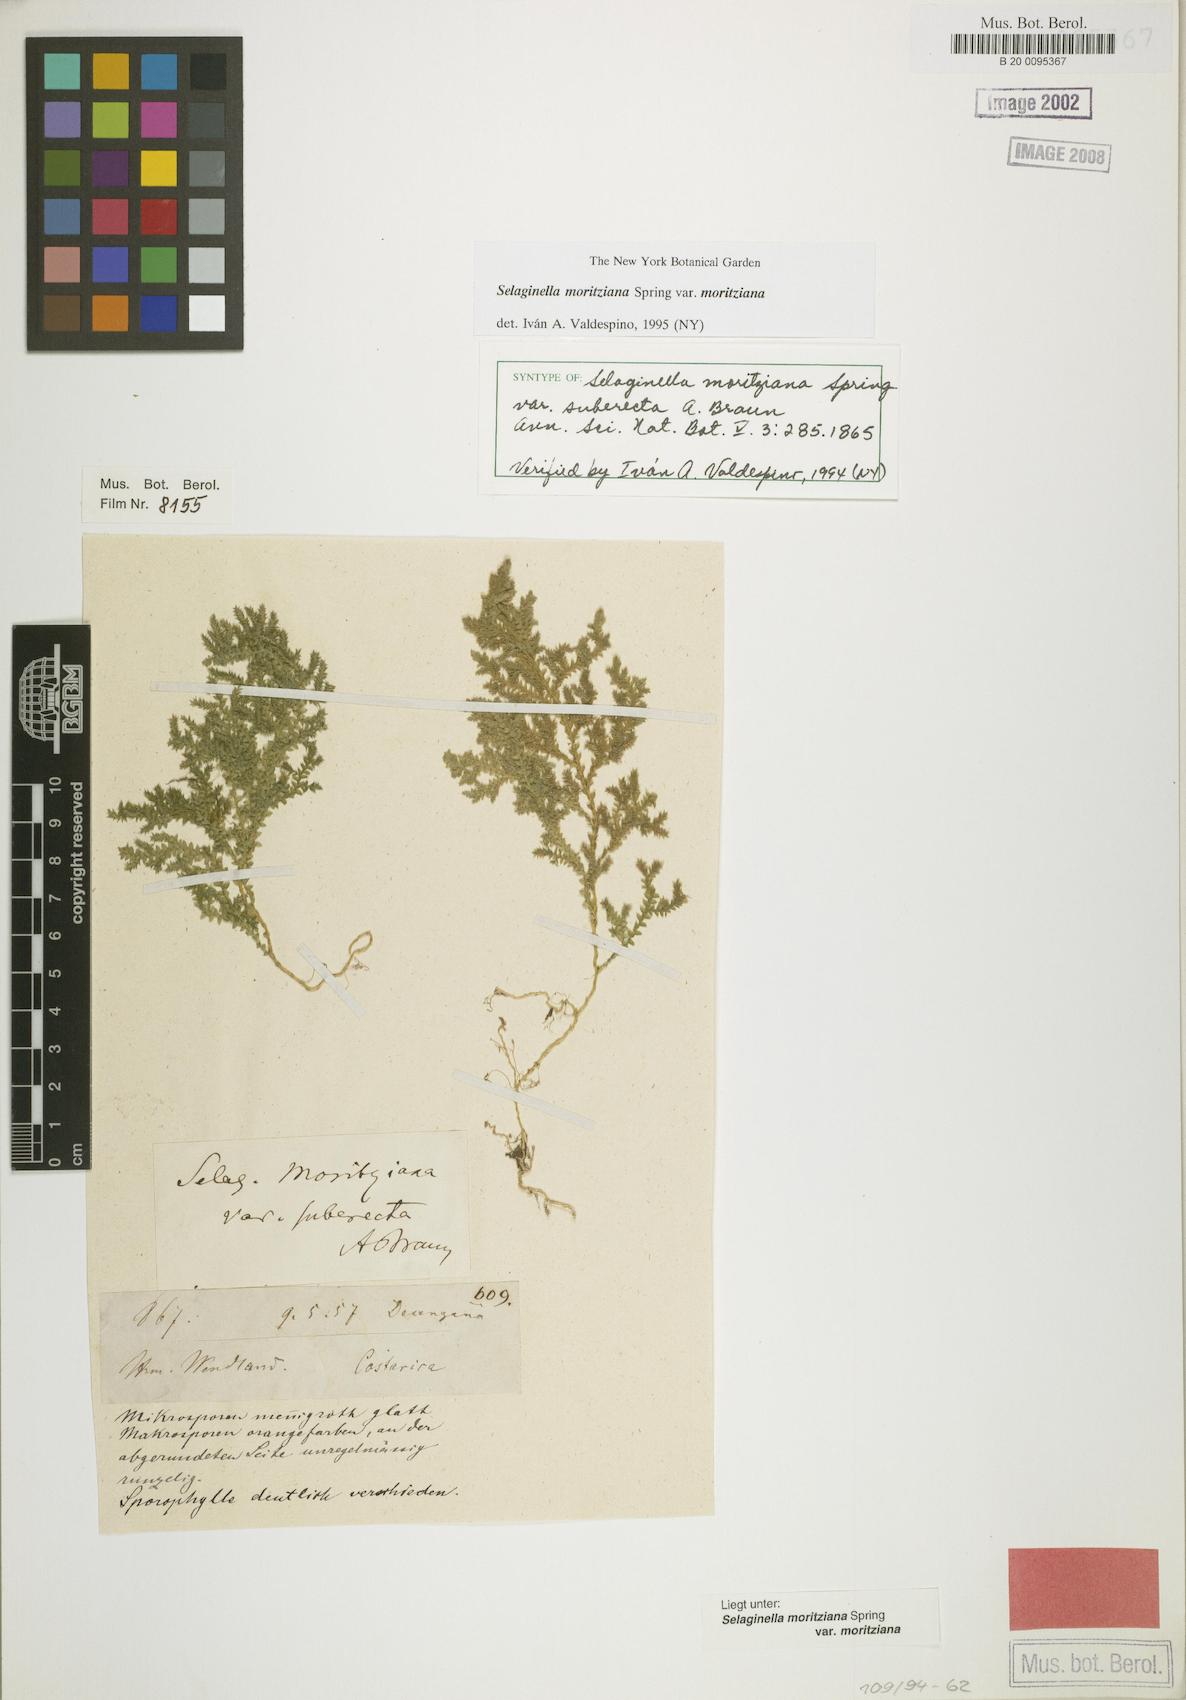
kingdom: Plantae
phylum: Tracheophyta
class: Lycopodiopsida
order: Selaginellales
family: Selaginellaceae
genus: Selaginella
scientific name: Selaginella moritziana
